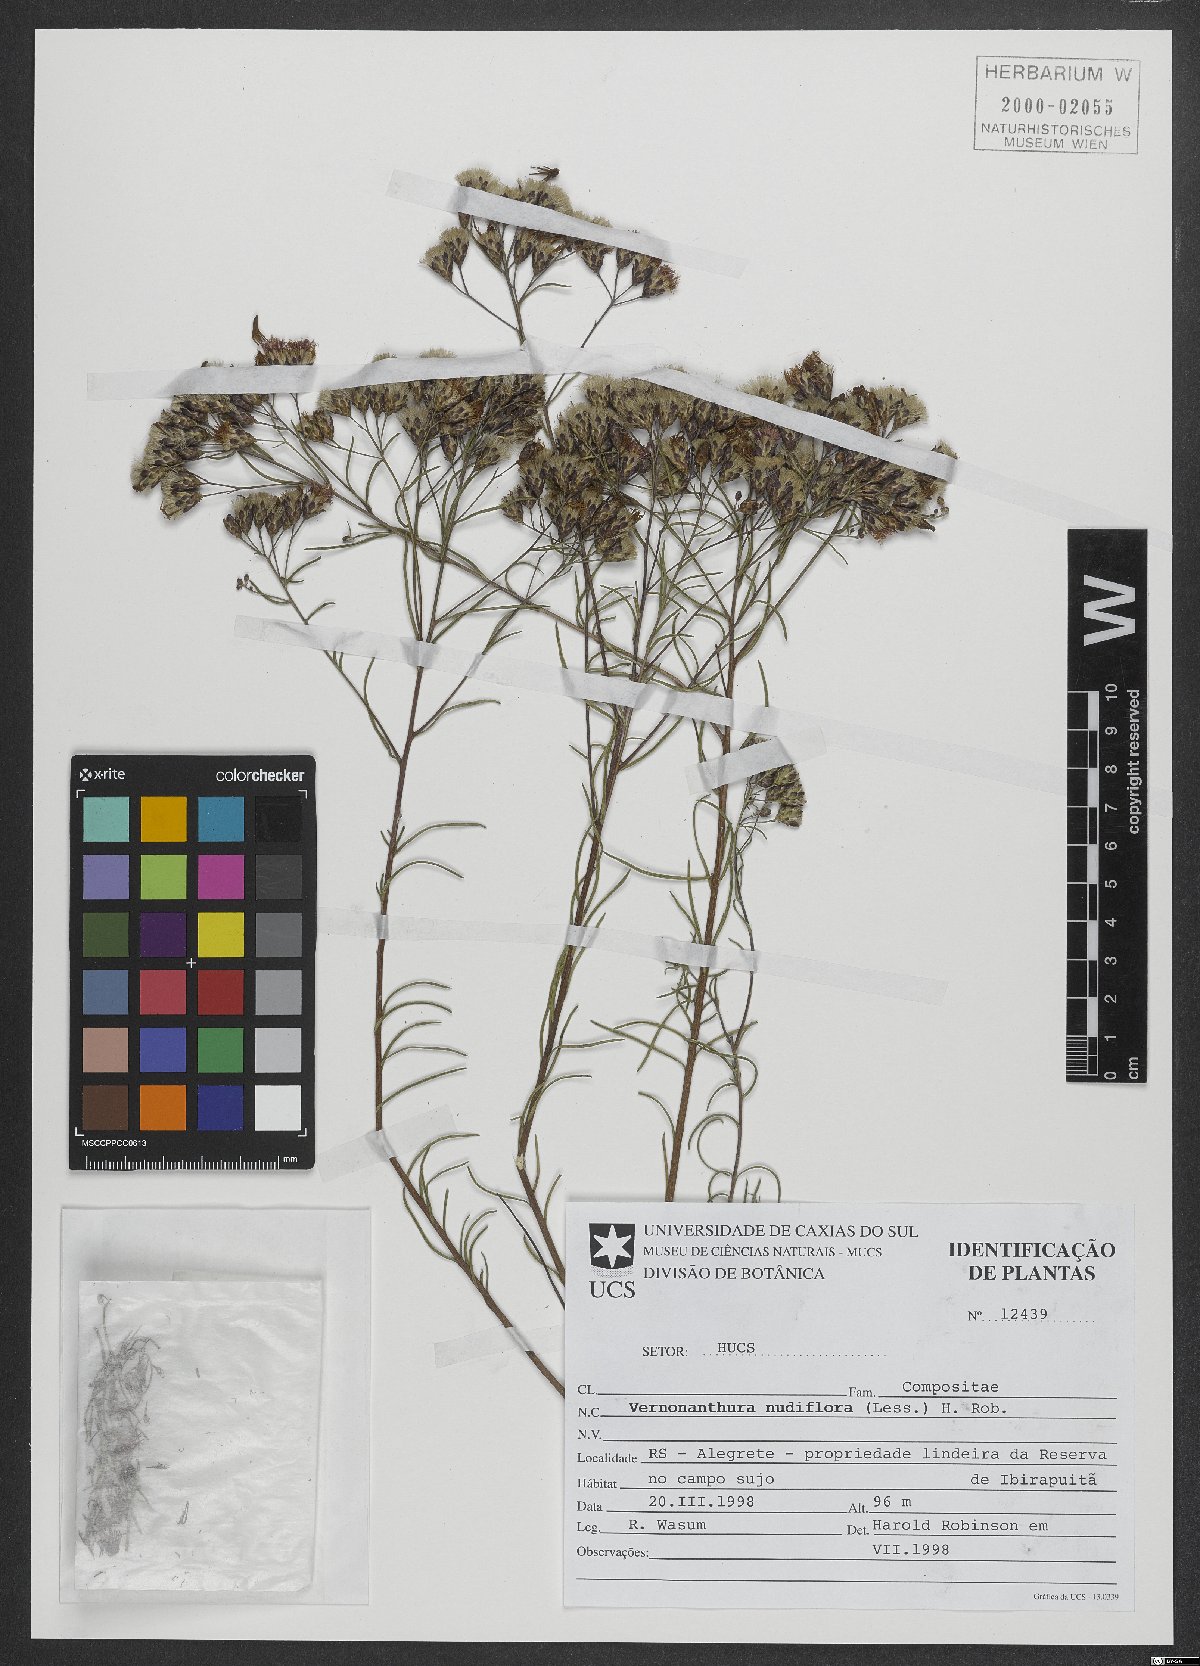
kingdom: Plantae
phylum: Tracheophyta
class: Magnoliopsida
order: Asterales
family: Asteraceae
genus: Vernonanthura
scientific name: Vernonanthura nudiflora
